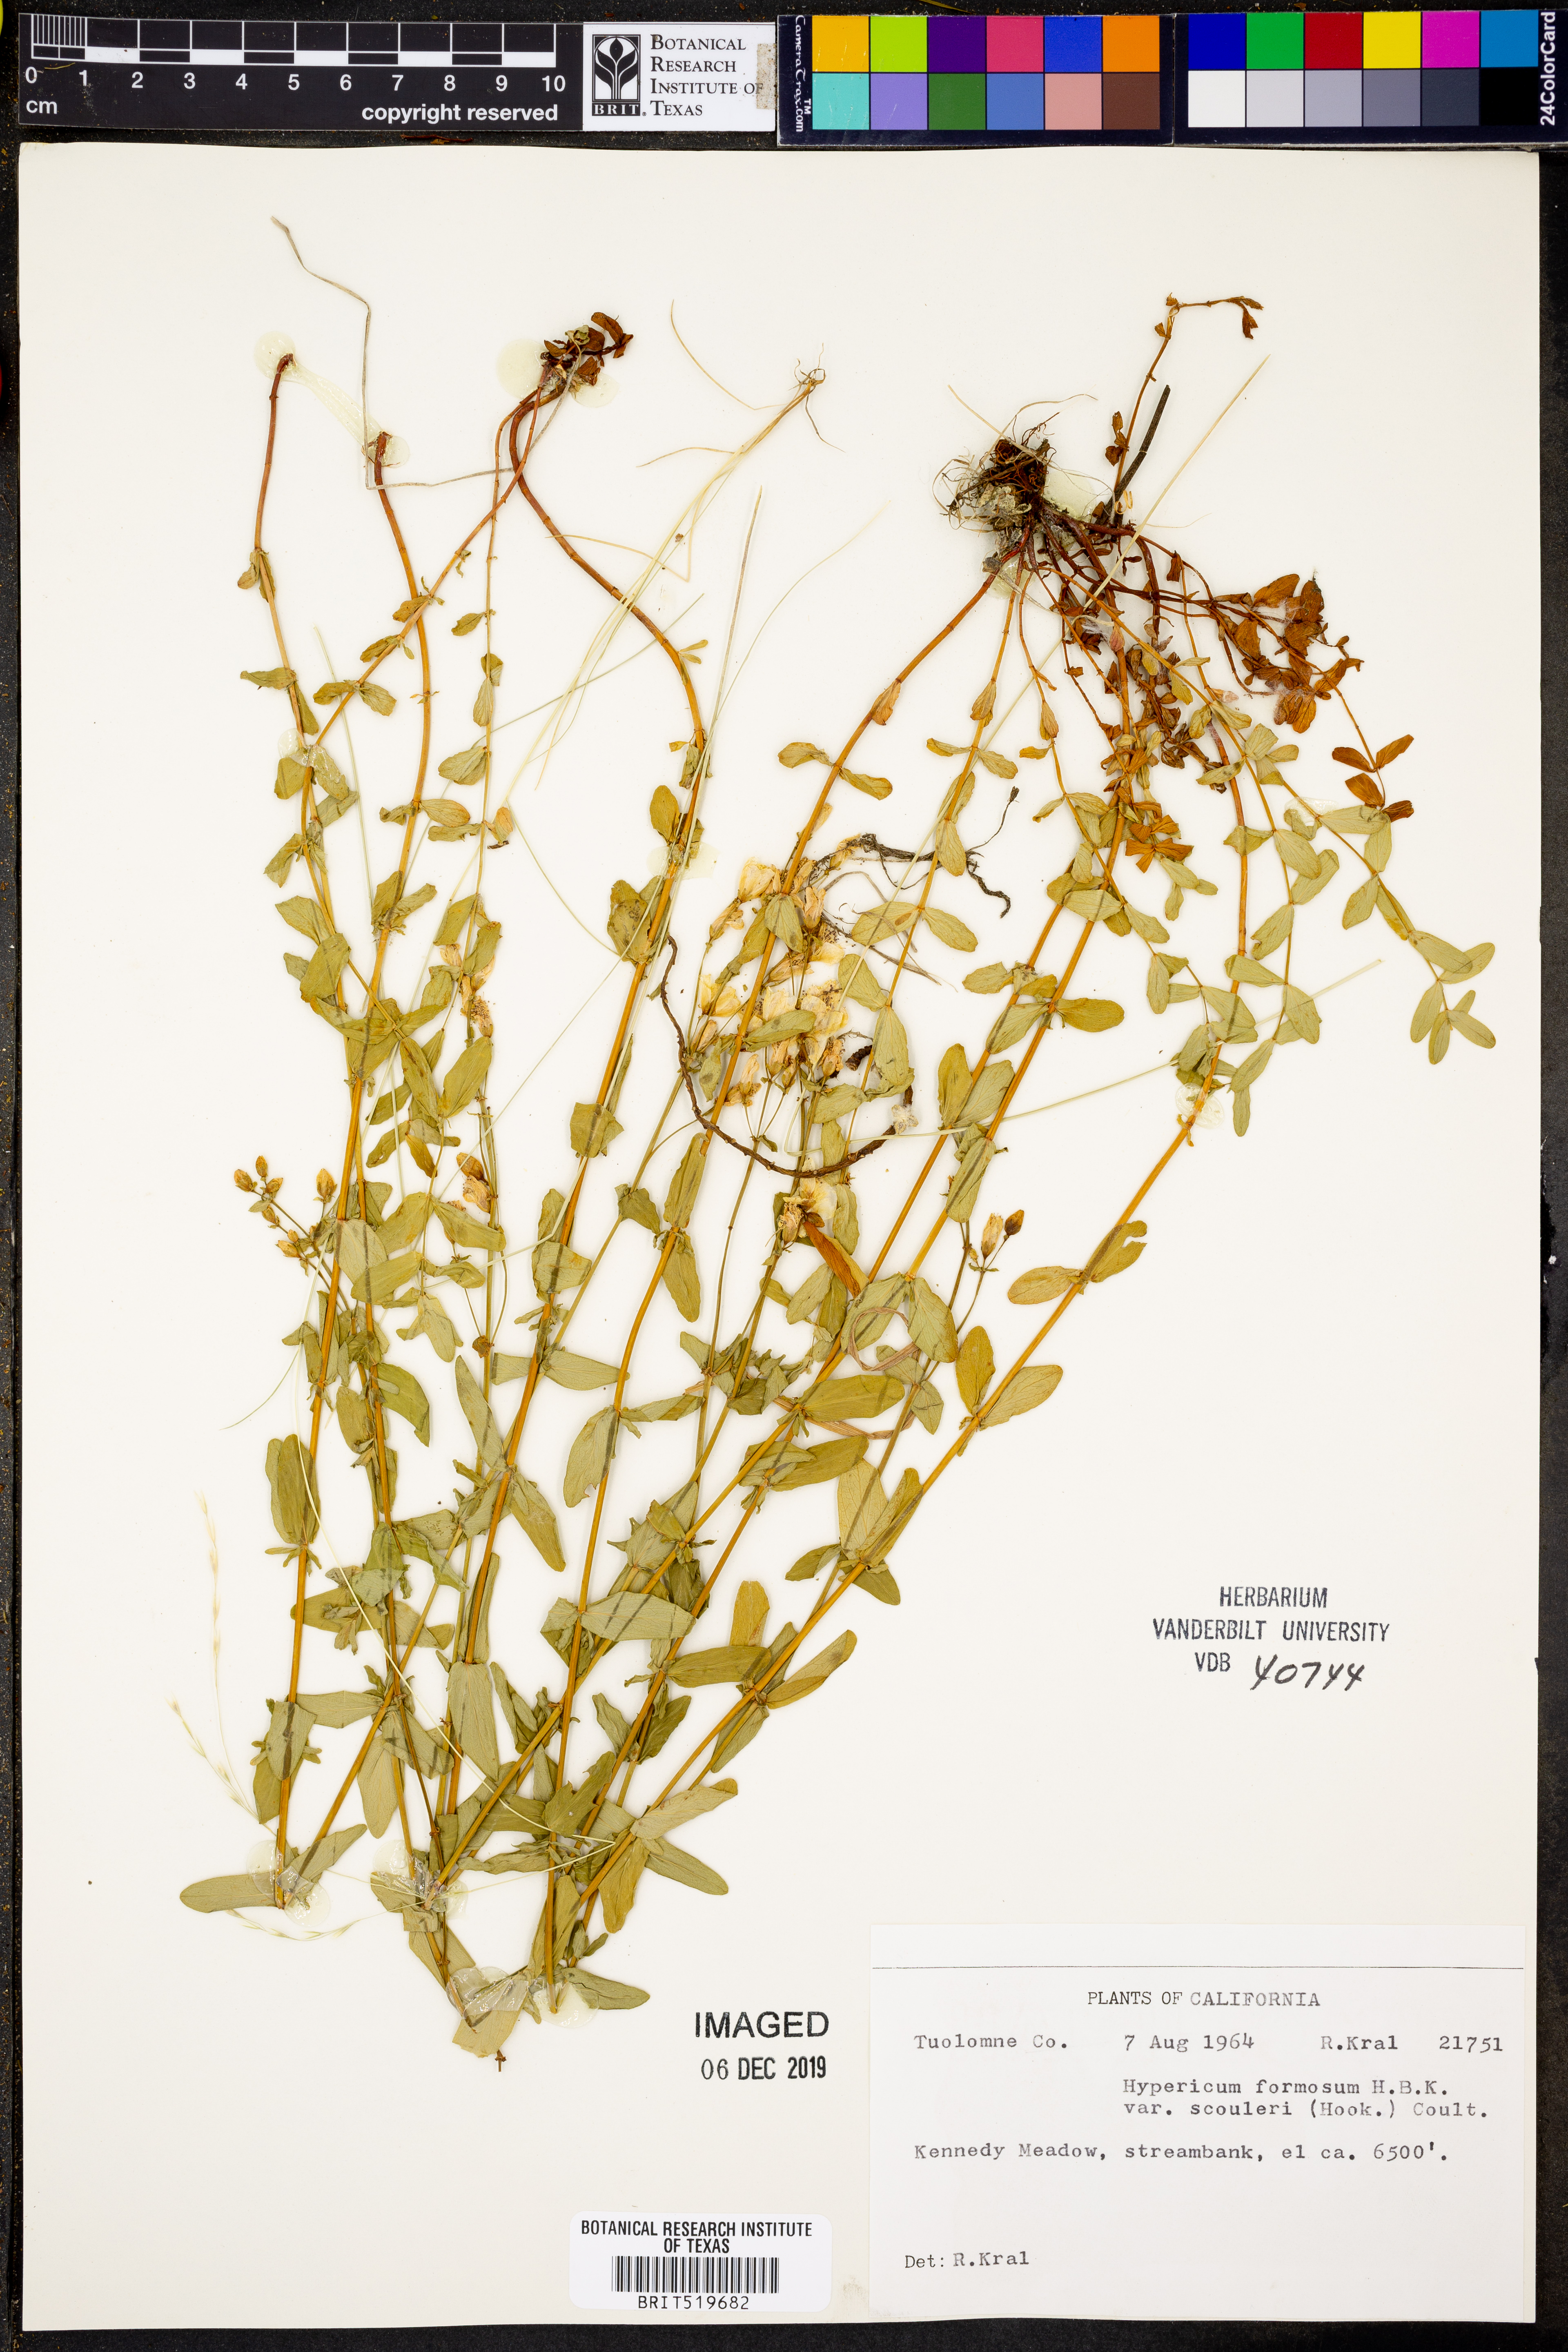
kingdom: Plantae
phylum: Tracheophyta
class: Magnoliopsida
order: Malpighiales
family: Hypericaceae
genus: Hypericum
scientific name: Hypericum scouleri
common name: Scouler's st. john's-wort
